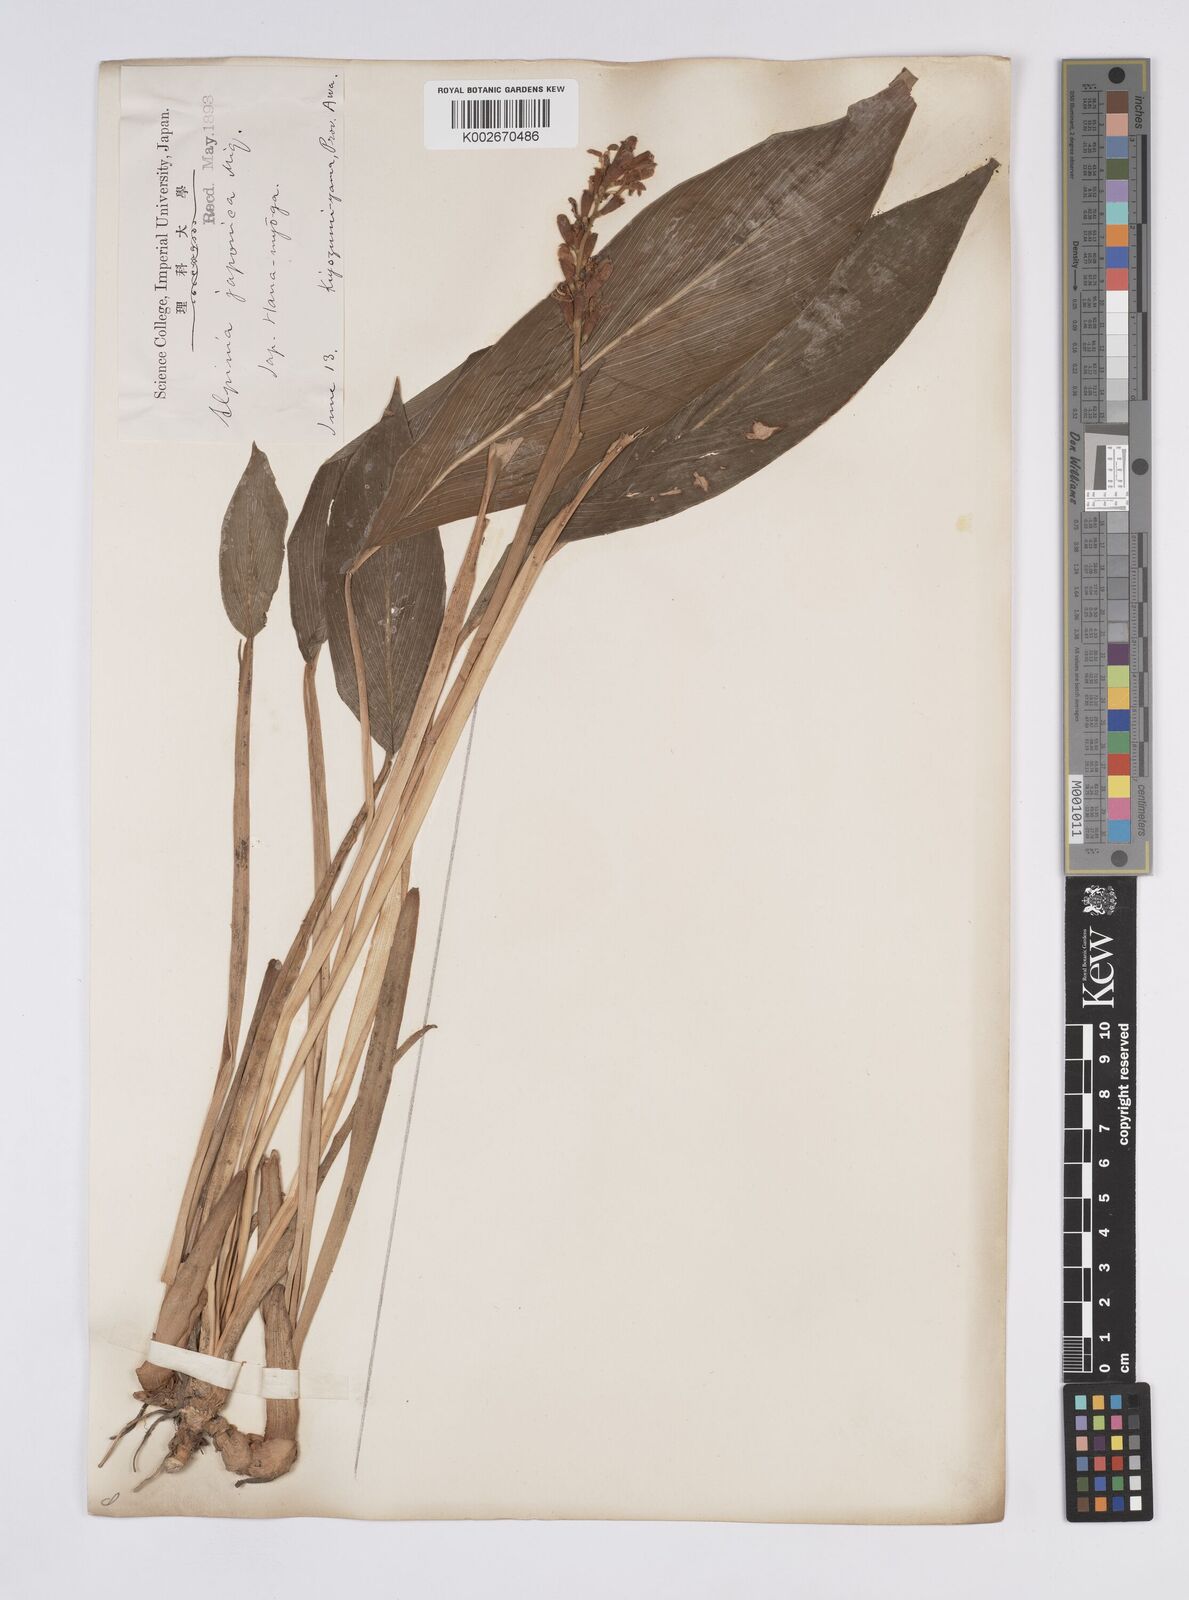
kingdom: Plantae
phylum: Tracheophyta
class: Liliopsida
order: Zingiberales
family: Zingiberaceae
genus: Alpinia
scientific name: Alpinia japonica
